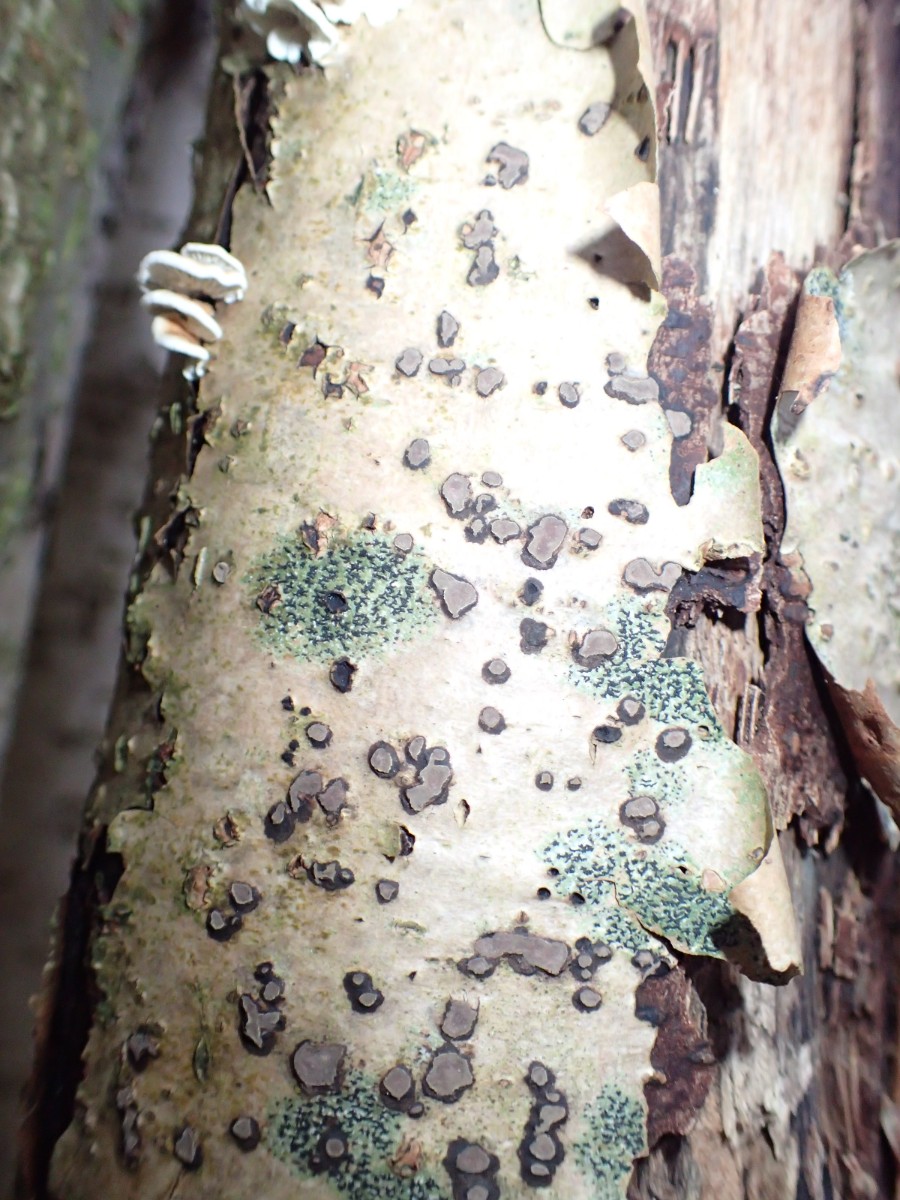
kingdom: Fungi
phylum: Ascomycota
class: Sordariomycetes
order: Xylariales
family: Hypoxylaceae
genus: Hypoxylon
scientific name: Hypoxylon fuscum
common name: kegleformet kulbær
